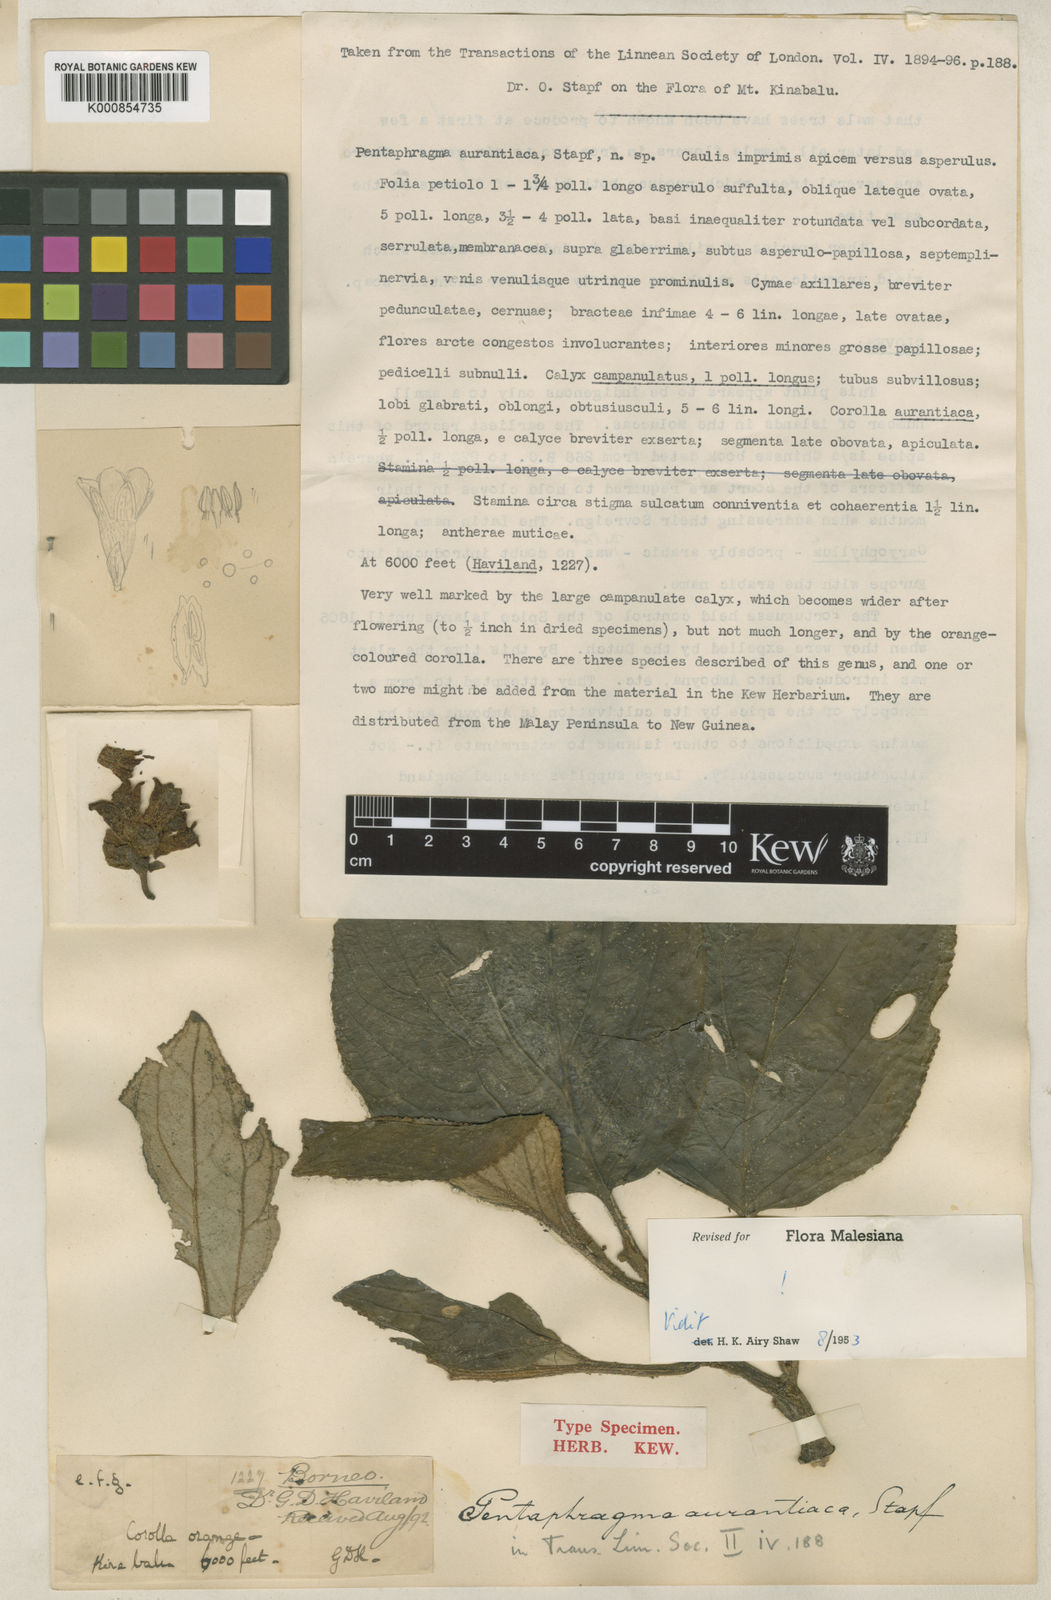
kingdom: Plantae
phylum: Tracheophyta
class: Magnoliopsida
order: Asterales
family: Pentaphragmataceae
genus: Pentaphragma
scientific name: Pentaphragma
